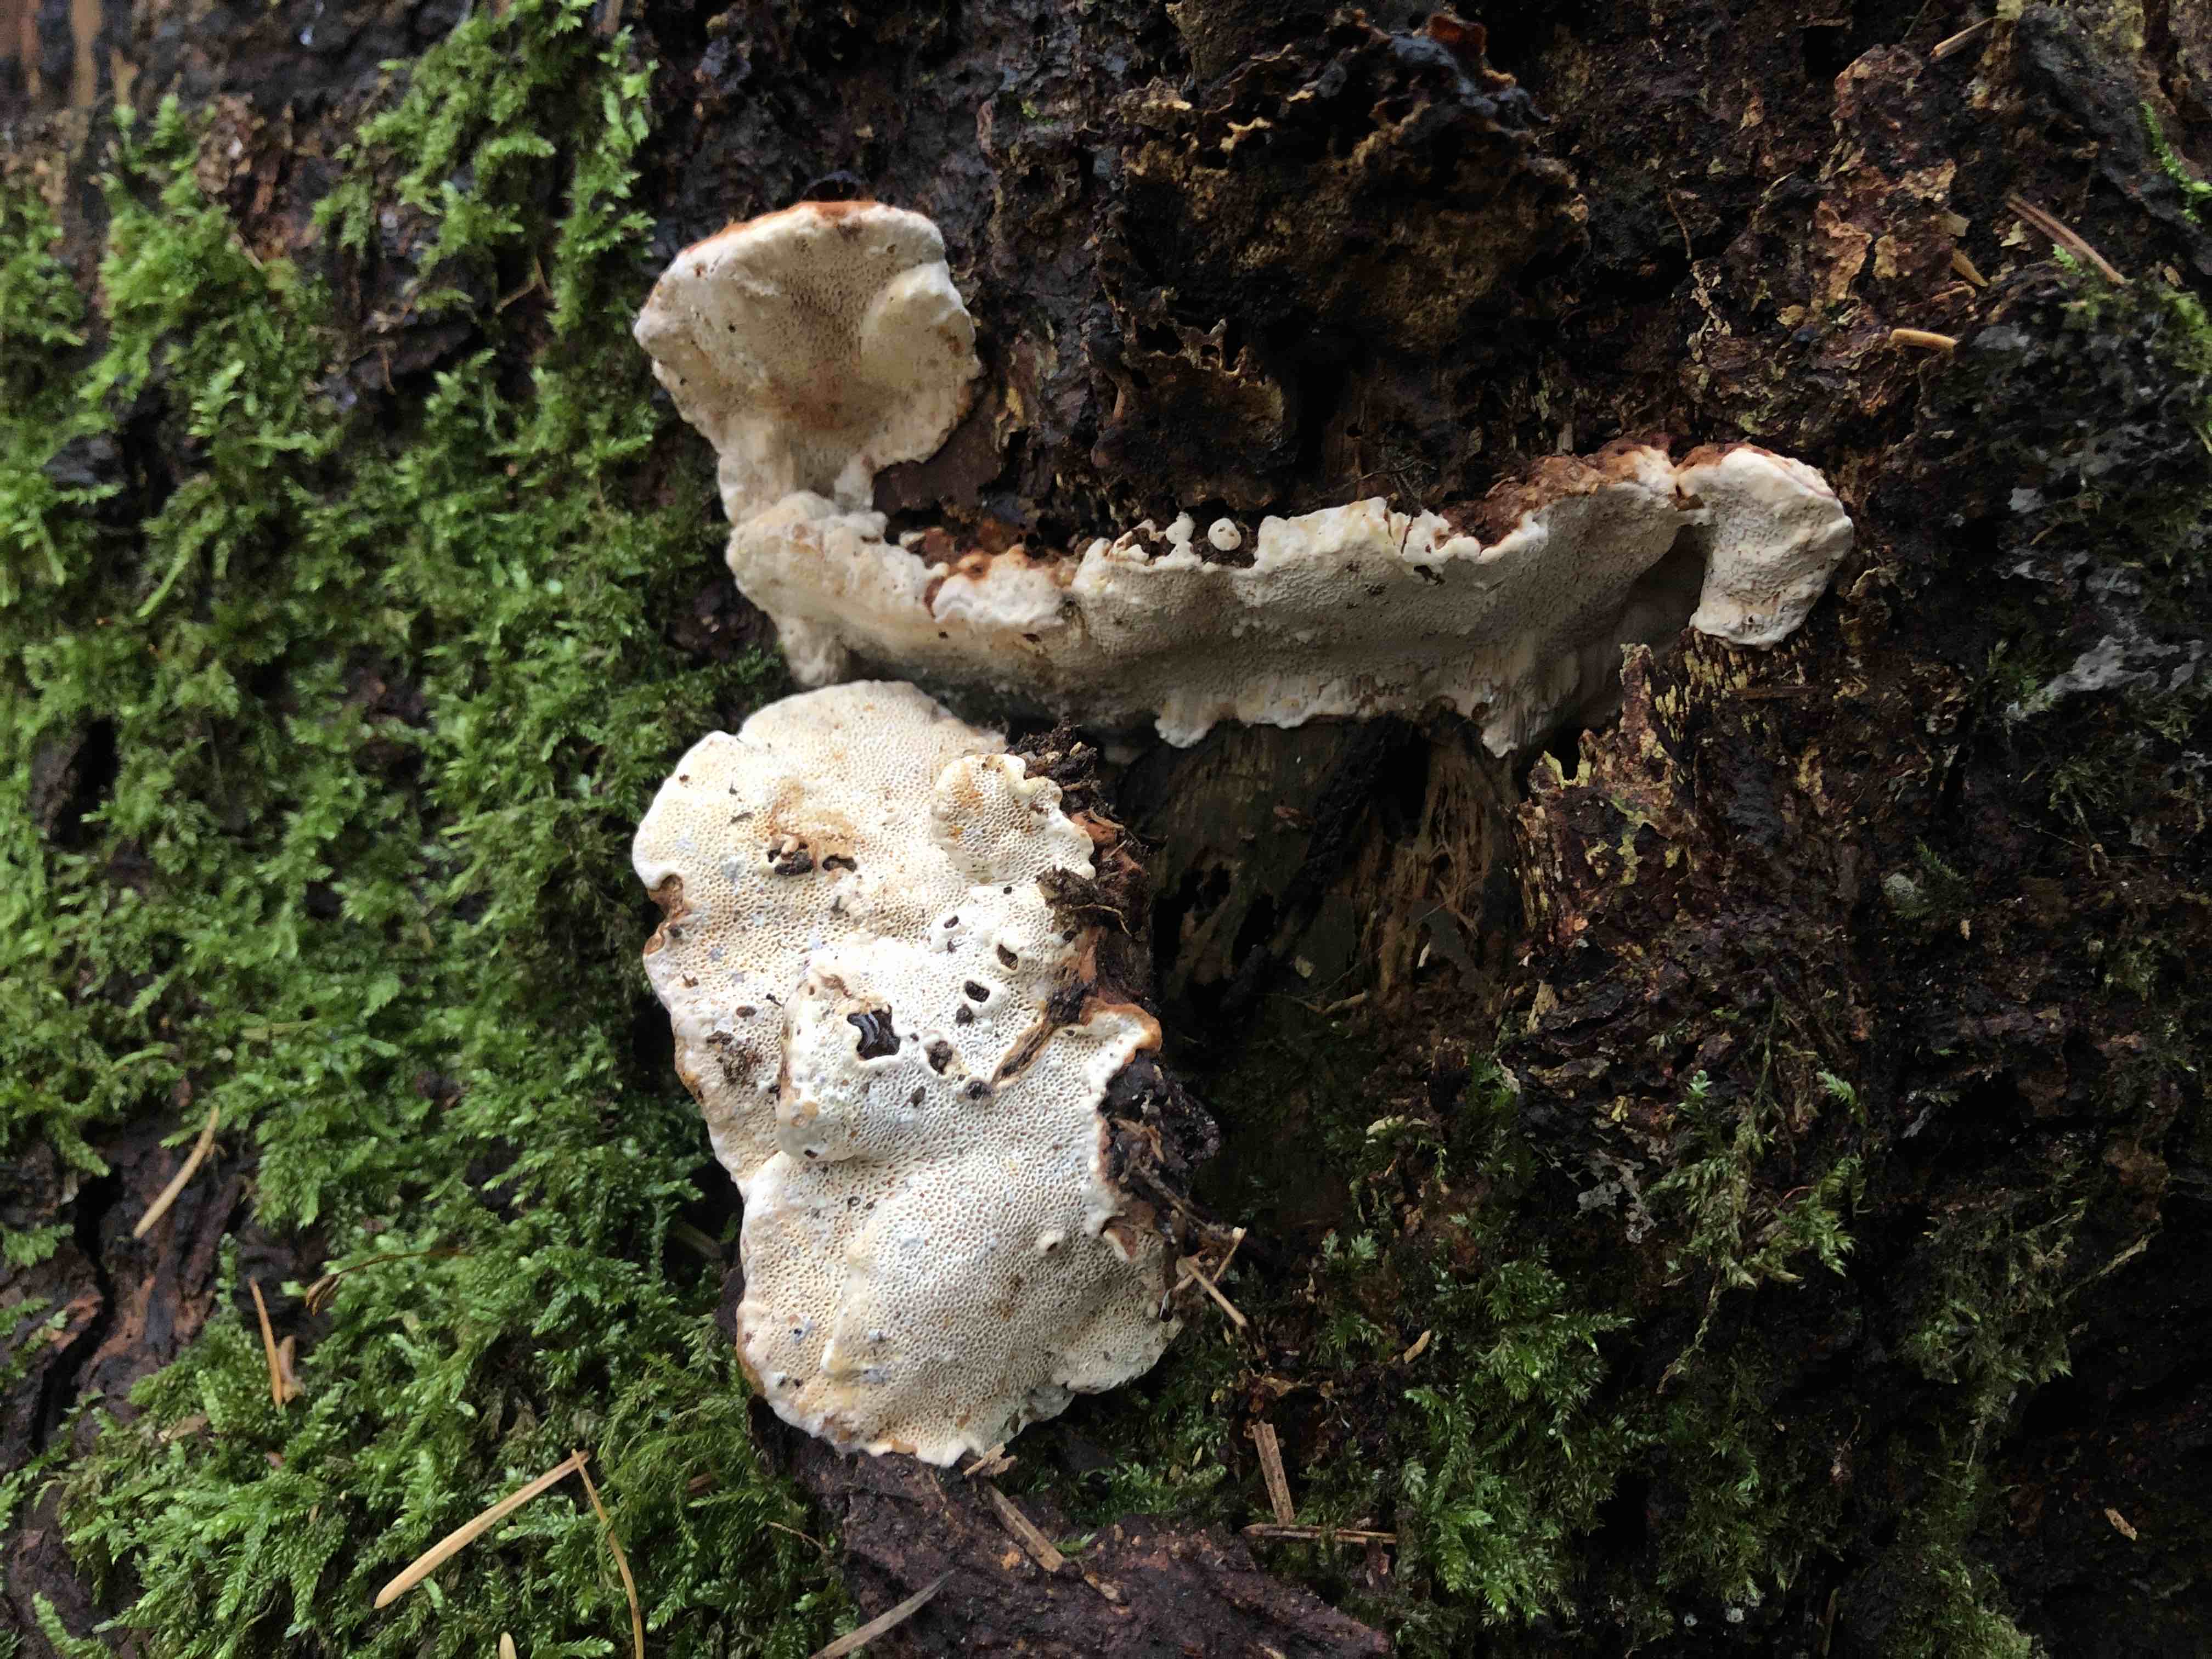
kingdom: Fungi
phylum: Basidiomycota
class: Agaricomycetes
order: Russulales
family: Bondarzewiaceae
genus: Heterobasidion
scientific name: Heterobasidion annosum
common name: almindelig rodfordærver
